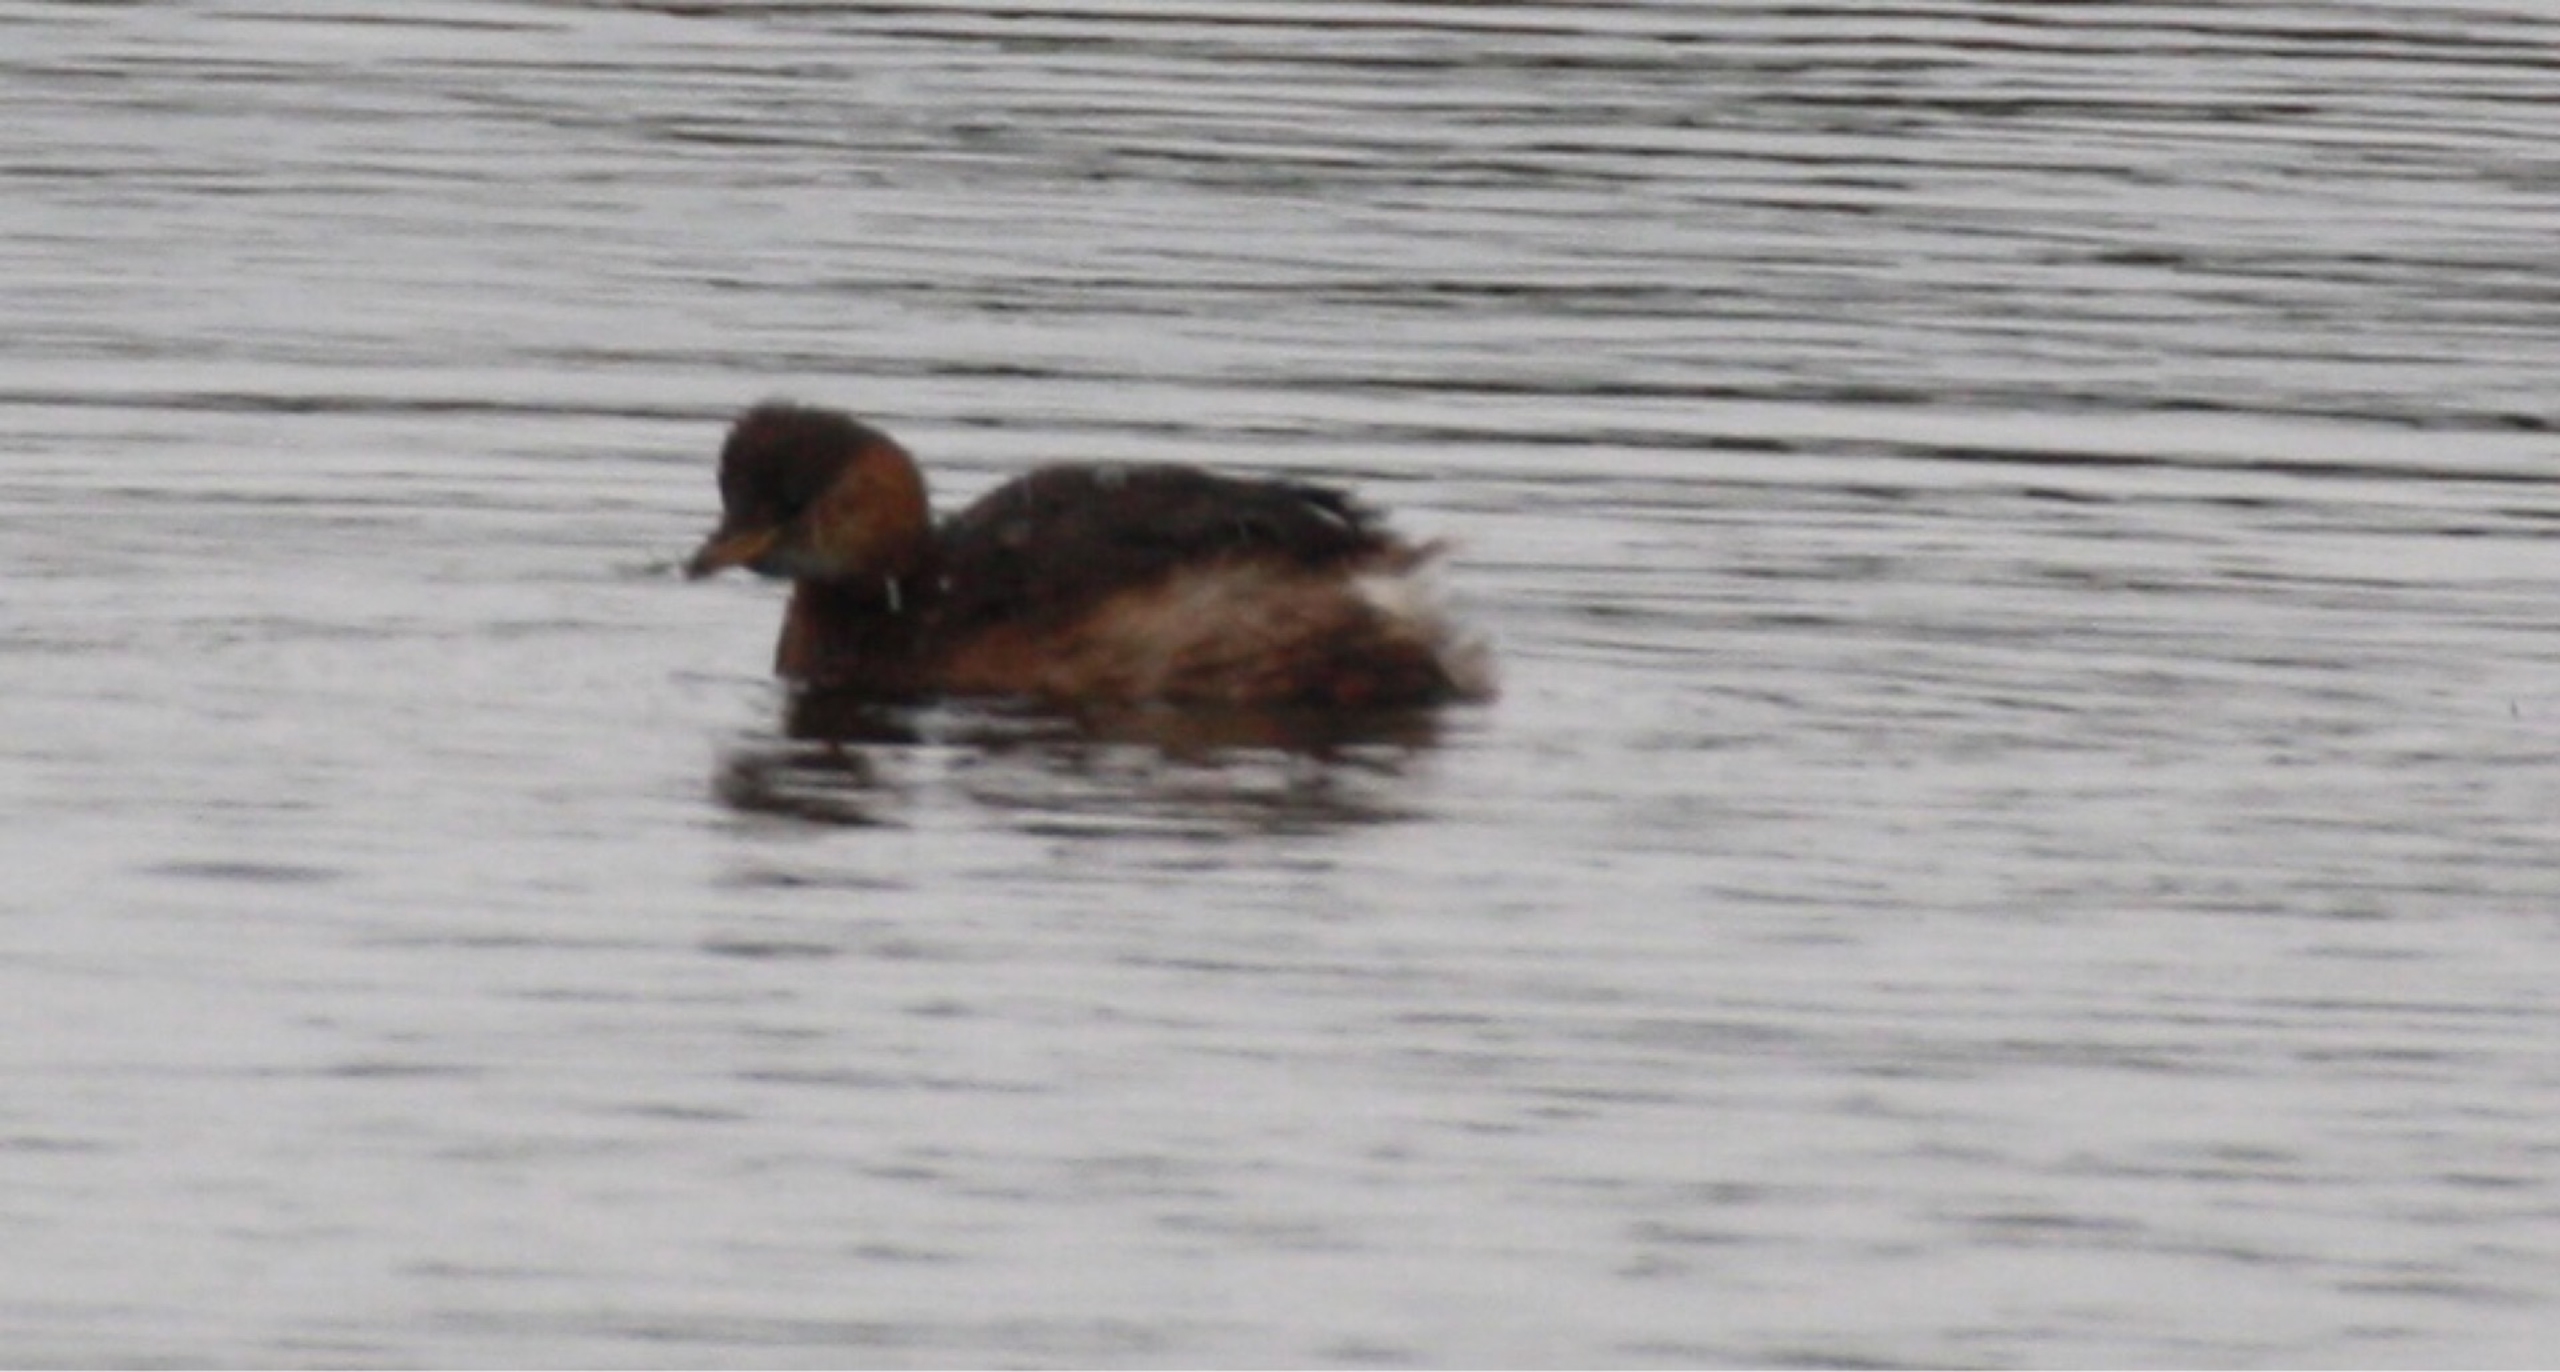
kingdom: Animalia
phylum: Chordata
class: Aves
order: Podicipediformes
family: Podicipedidae
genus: Tachybaptus
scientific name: Tachybaptus ruficollis
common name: Lille lappedykker
